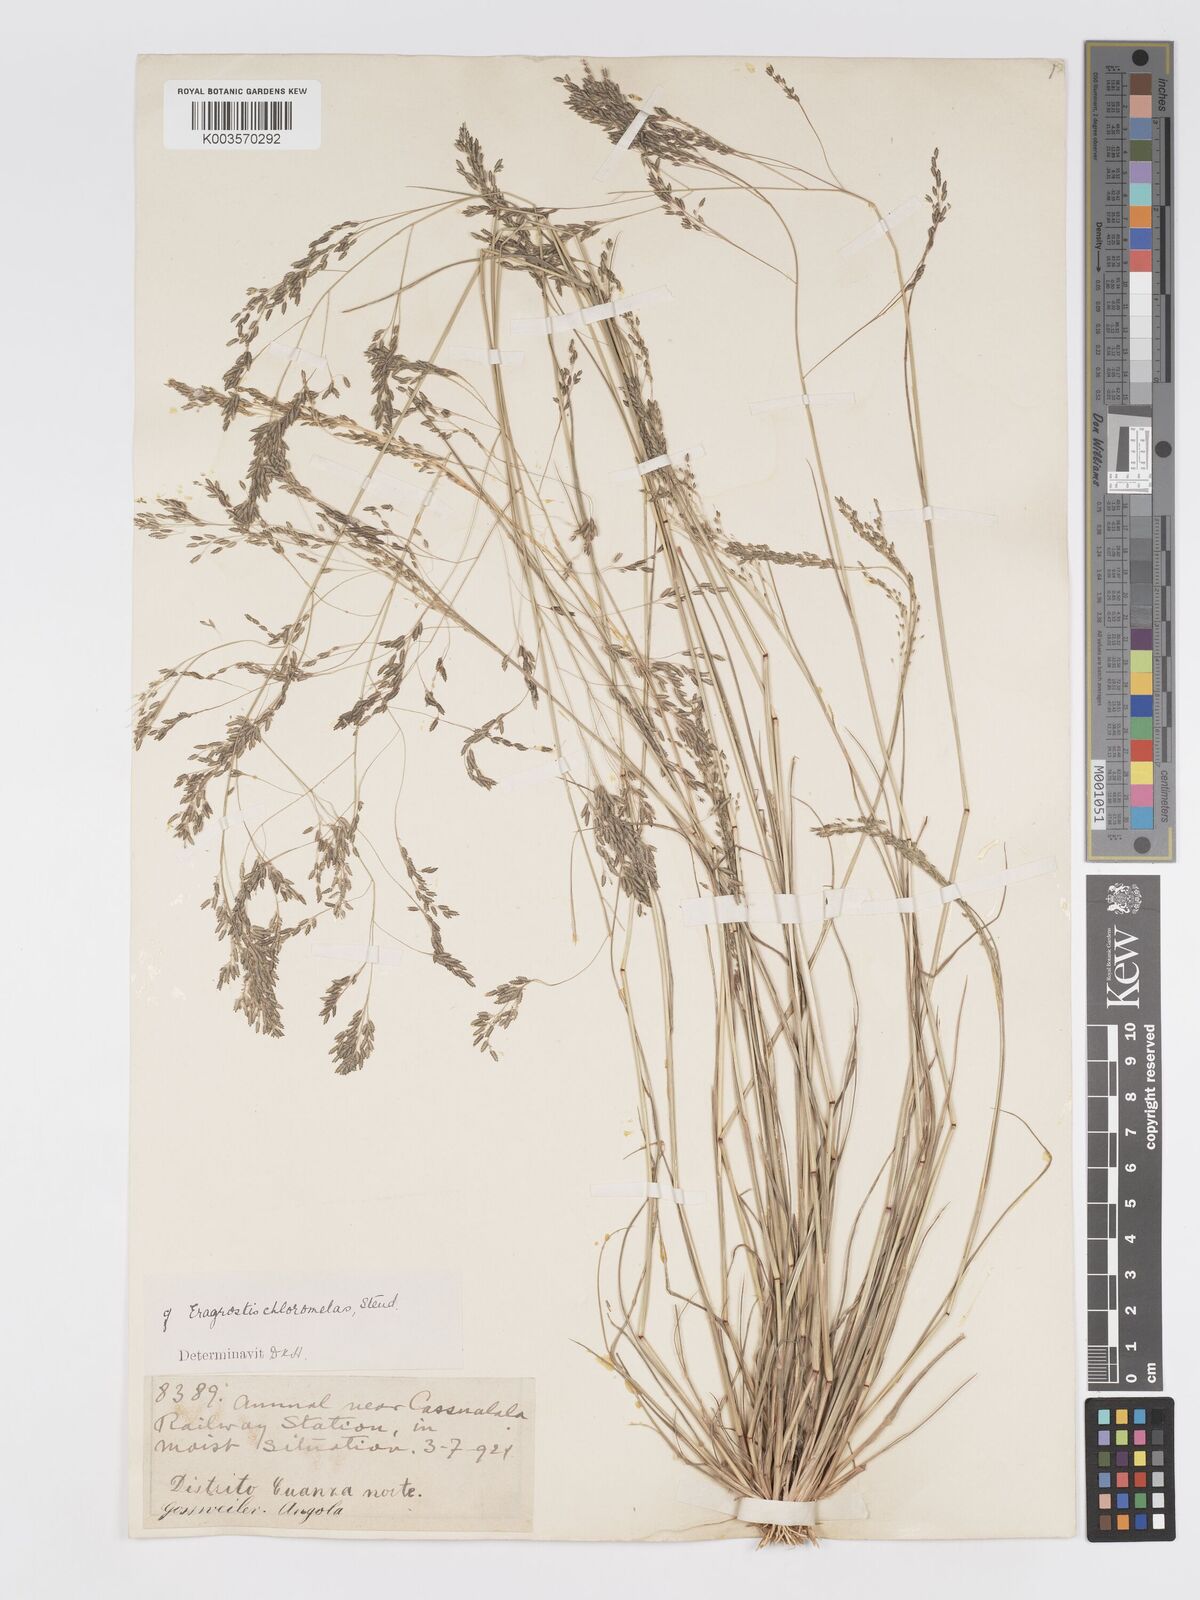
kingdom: Plantae
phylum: Tracheophyta
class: Liliopsida
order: Poales
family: Poaceae
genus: Eragrostis
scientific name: Eragrostis gangetica
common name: Slimflower lovegrass
